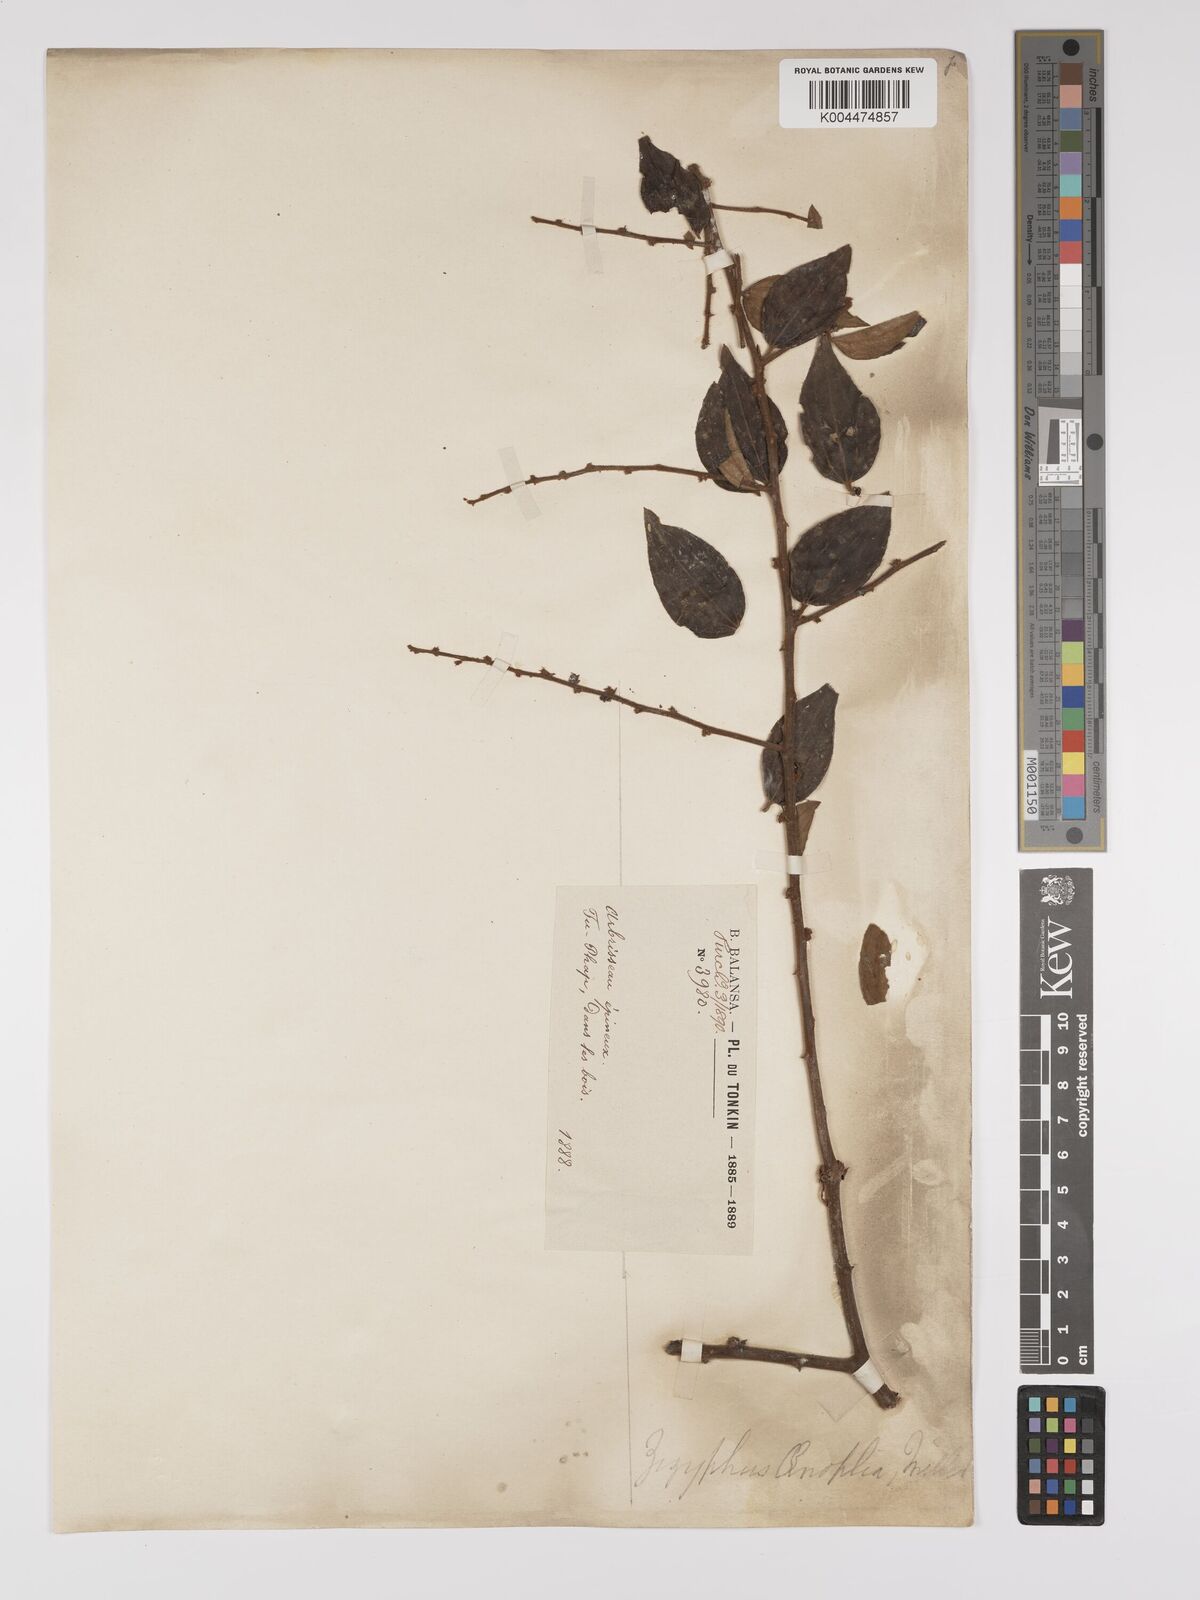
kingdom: Plantae
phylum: Tracheophyta
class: Magnoliopsida
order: Rosales
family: Rhamnaceae
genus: Ziziphus
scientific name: Ziziphus oenopolia
